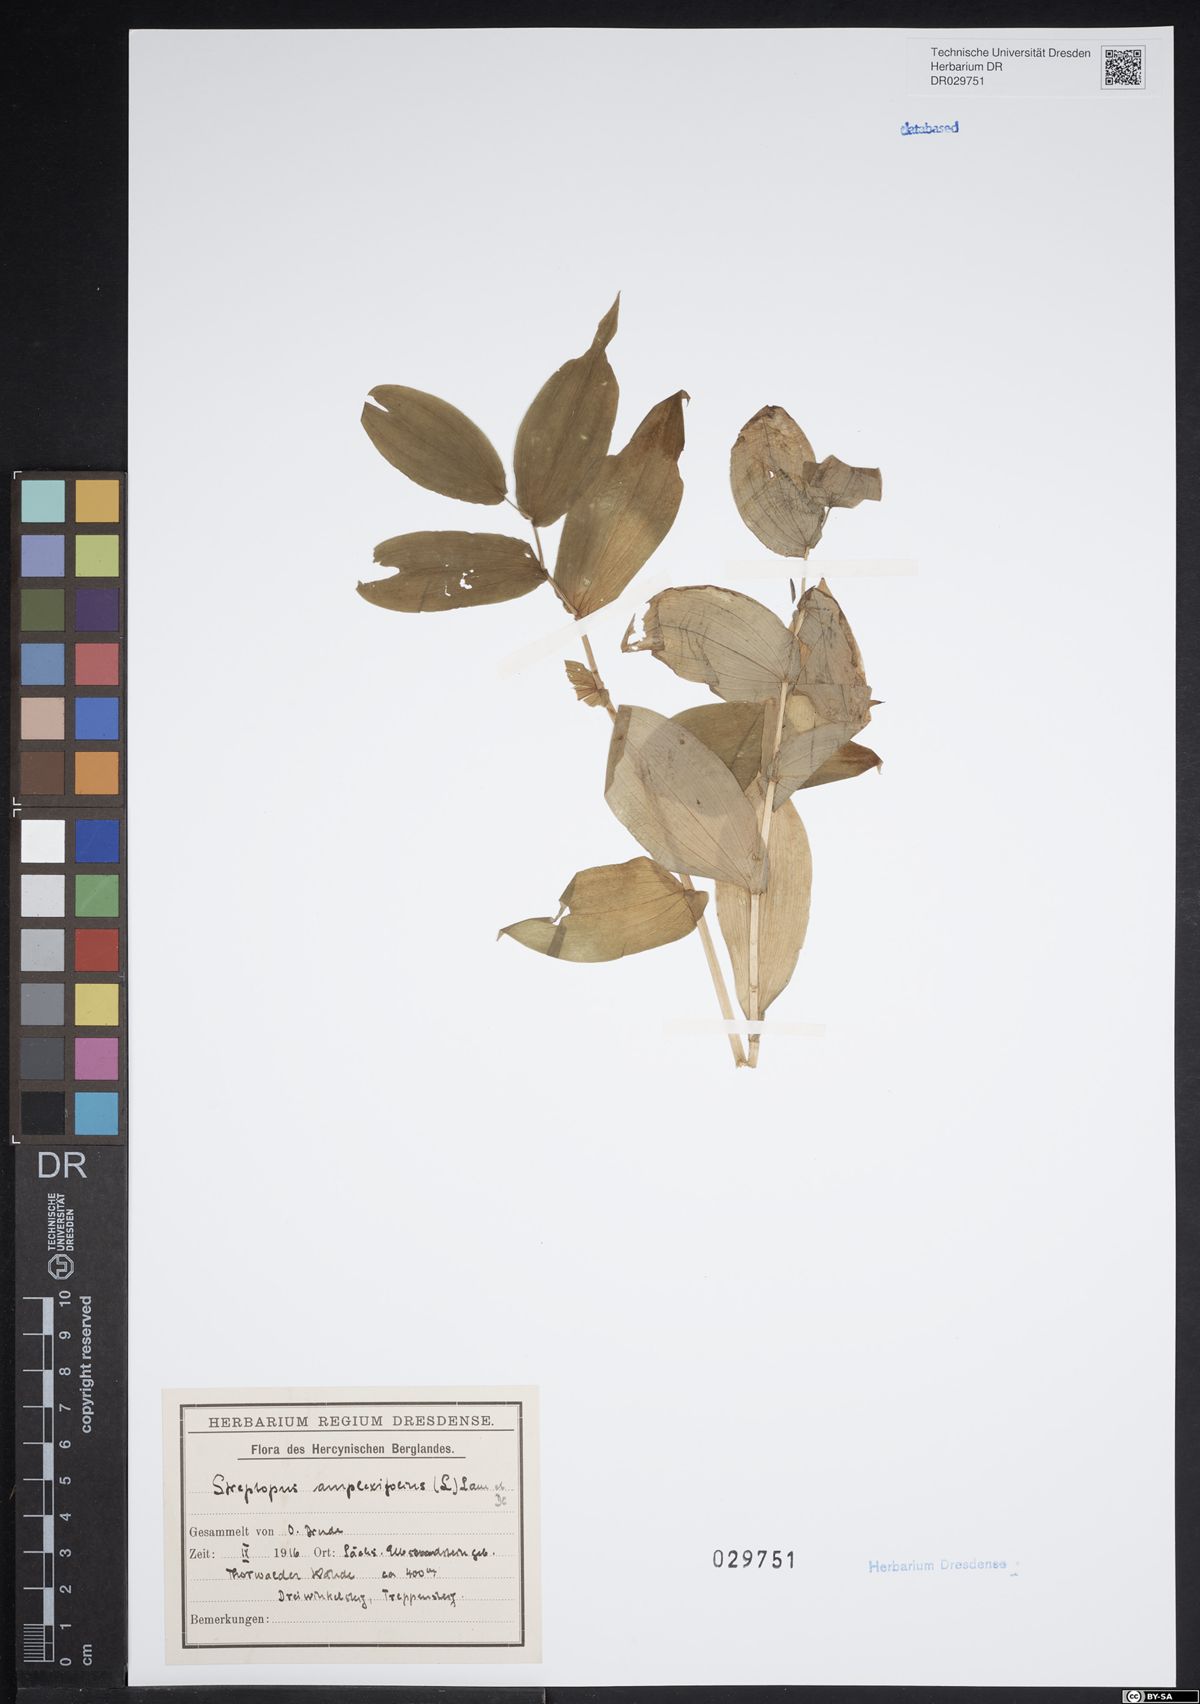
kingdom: Plantae
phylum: Tracheophyta
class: Liliopsida
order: Liliales
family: Liliaceae
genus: Streptopus
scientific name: Streptopus amplexifolius
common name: Clasp twisted stalk
